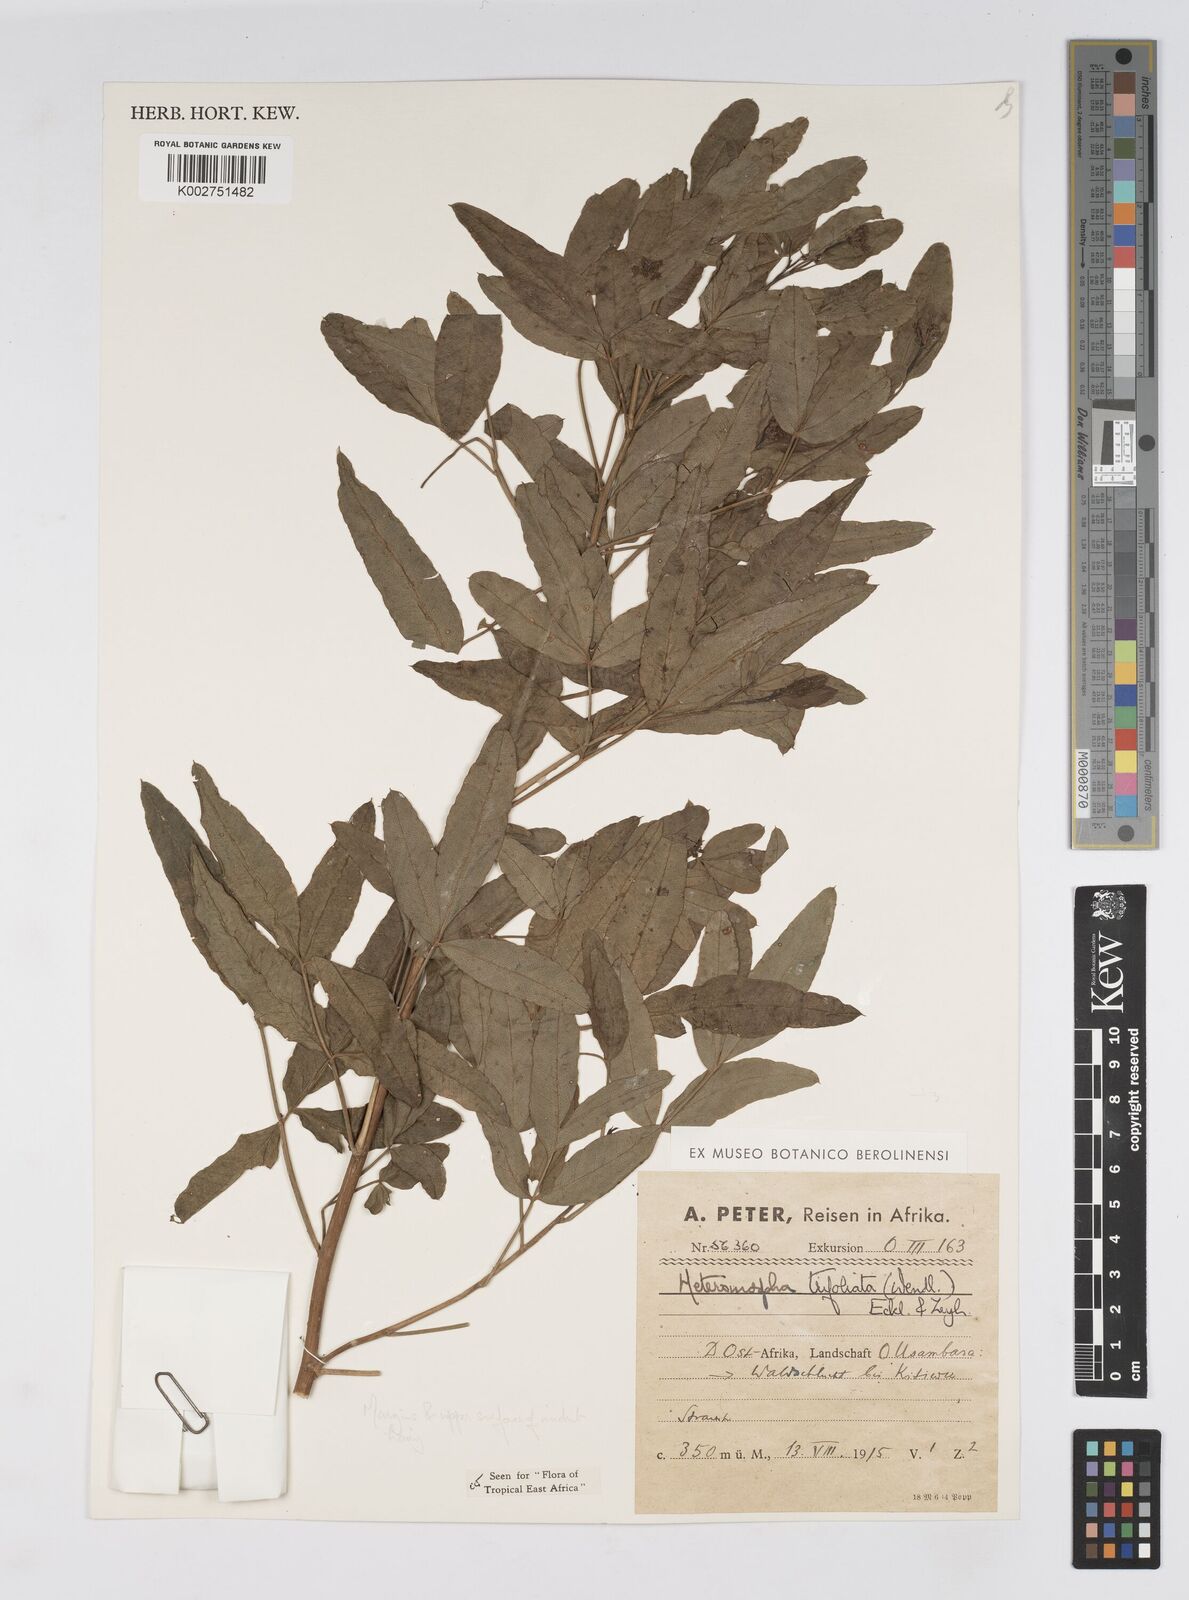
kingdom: Plantae
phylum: Tracheophyta
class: Magnoliopsida
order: Apiales
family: Apiaceae
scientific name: Apiaceae
